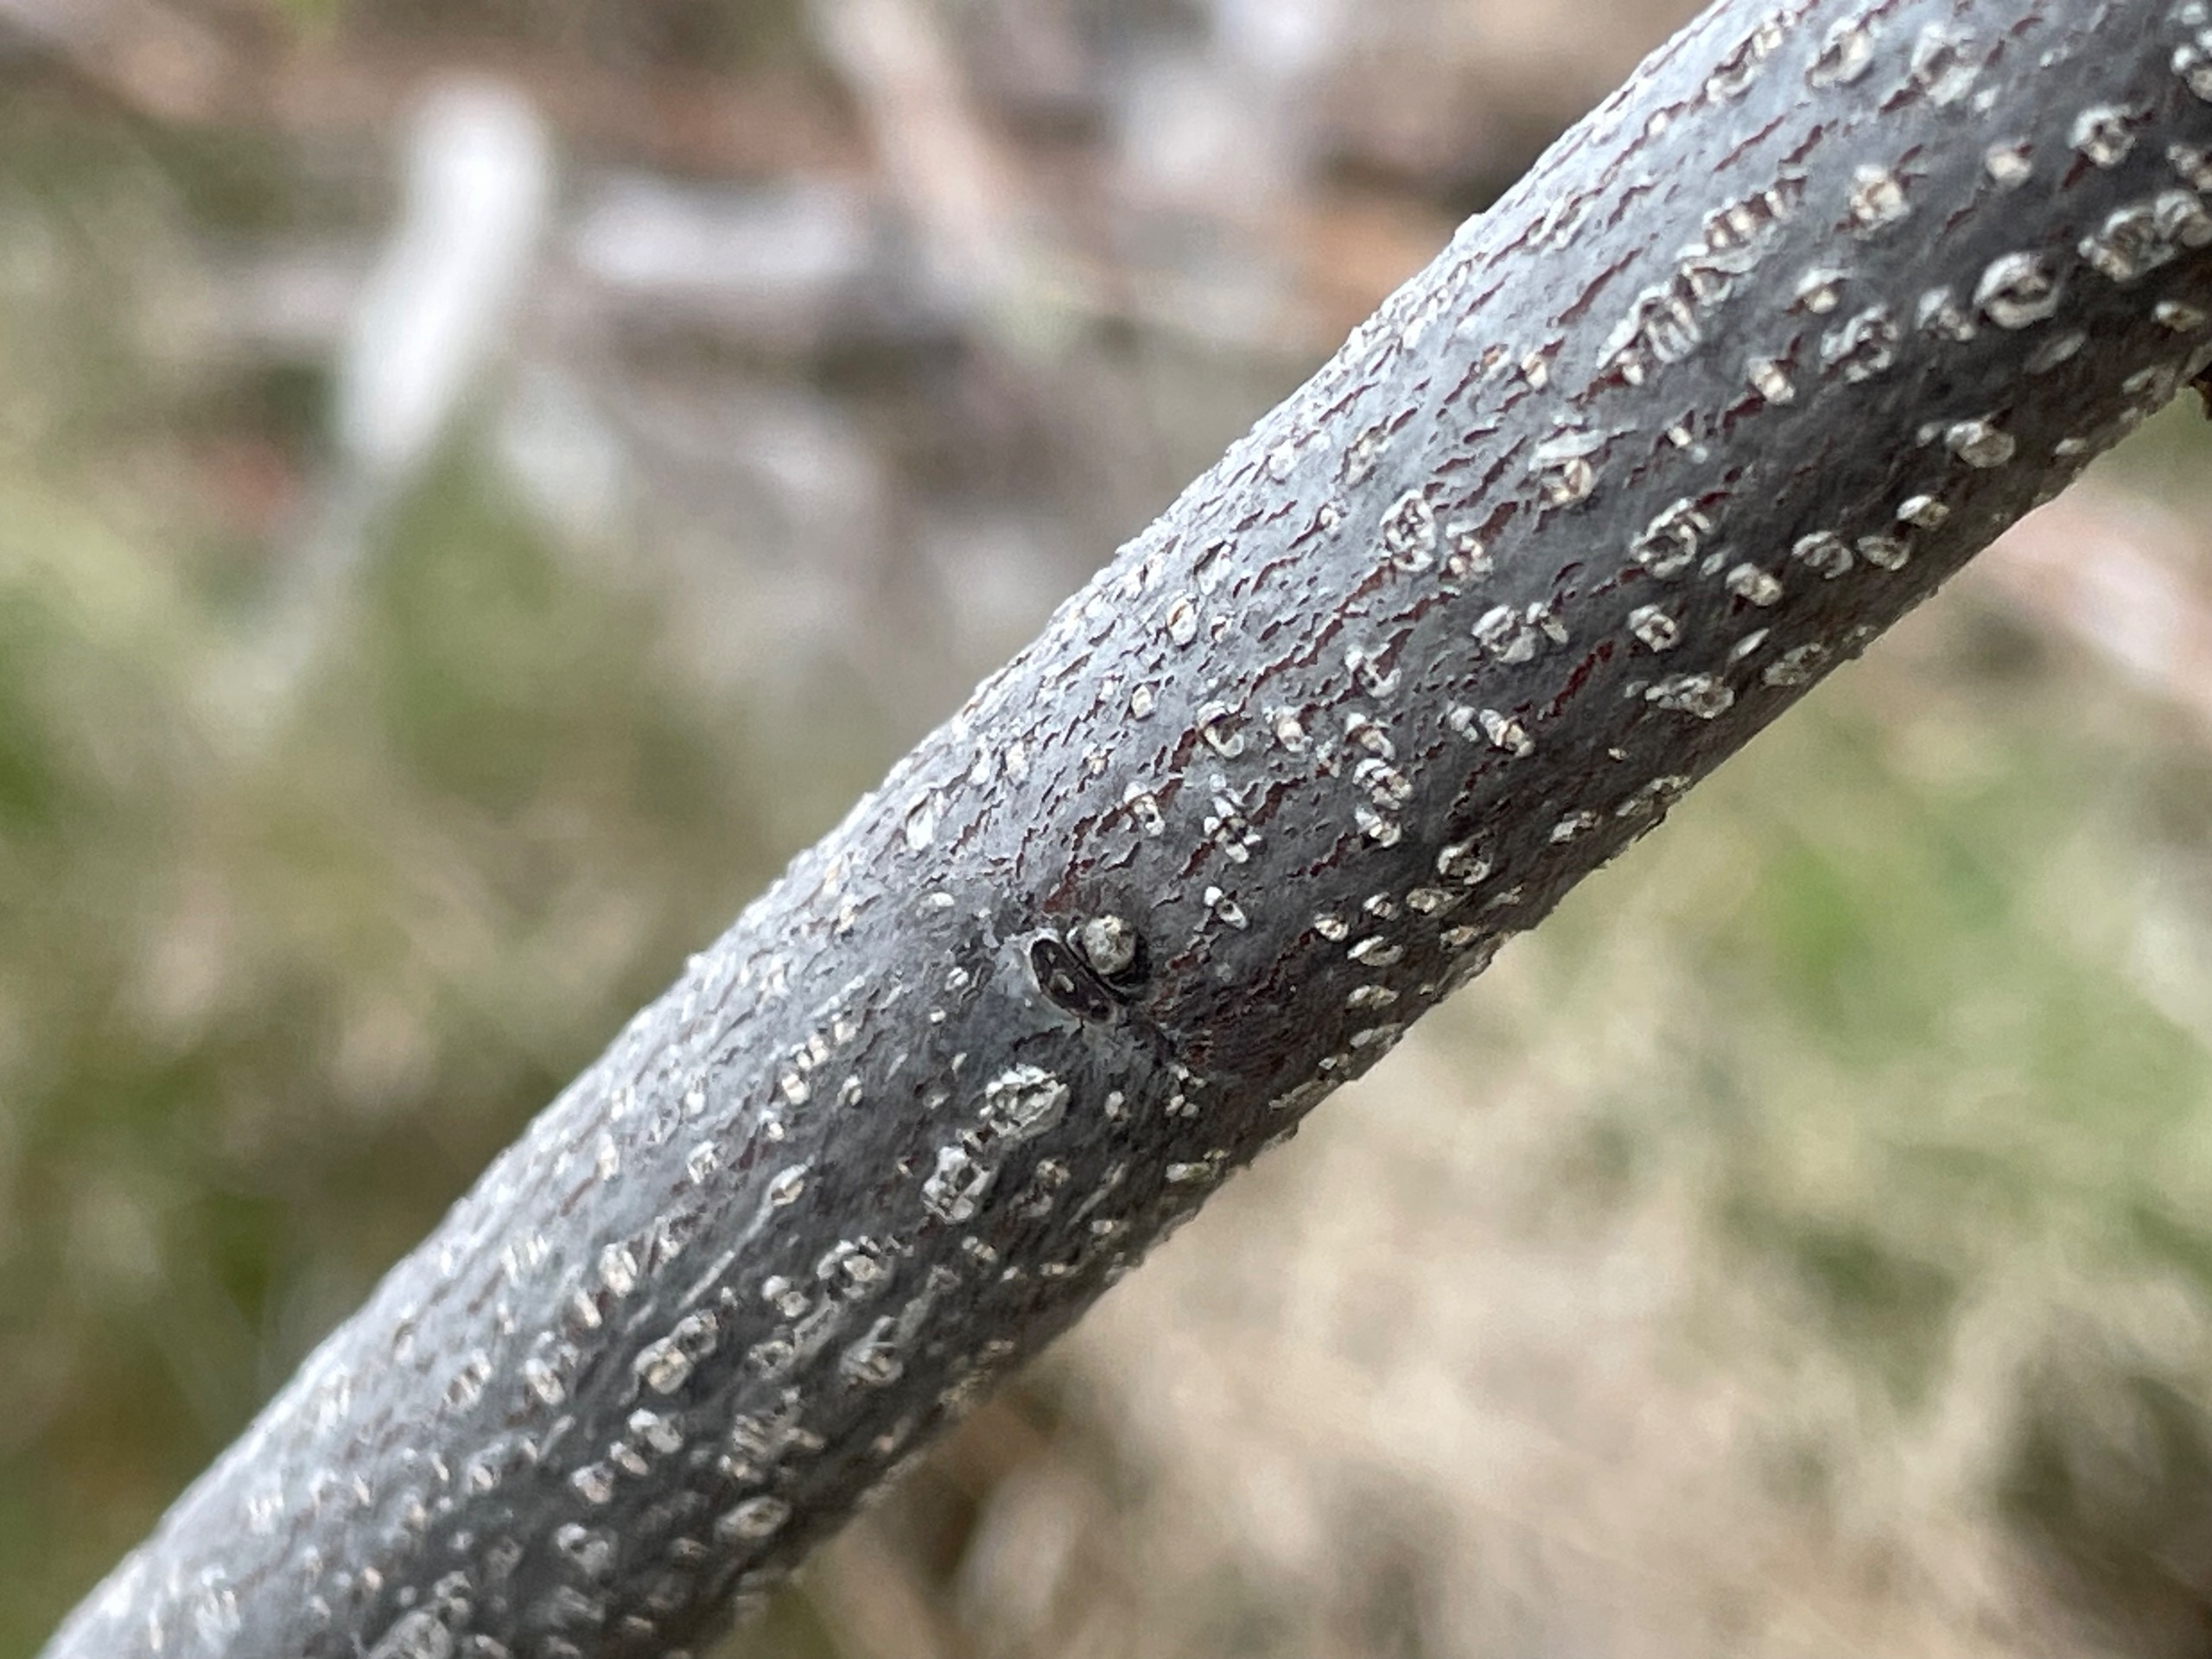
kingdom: Plantae
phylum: Tracheophyta
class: Magnoliopsida
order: Rosales
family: Rhamnaceae
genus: Frangula
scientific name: Frangula alnus
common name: Tørst
